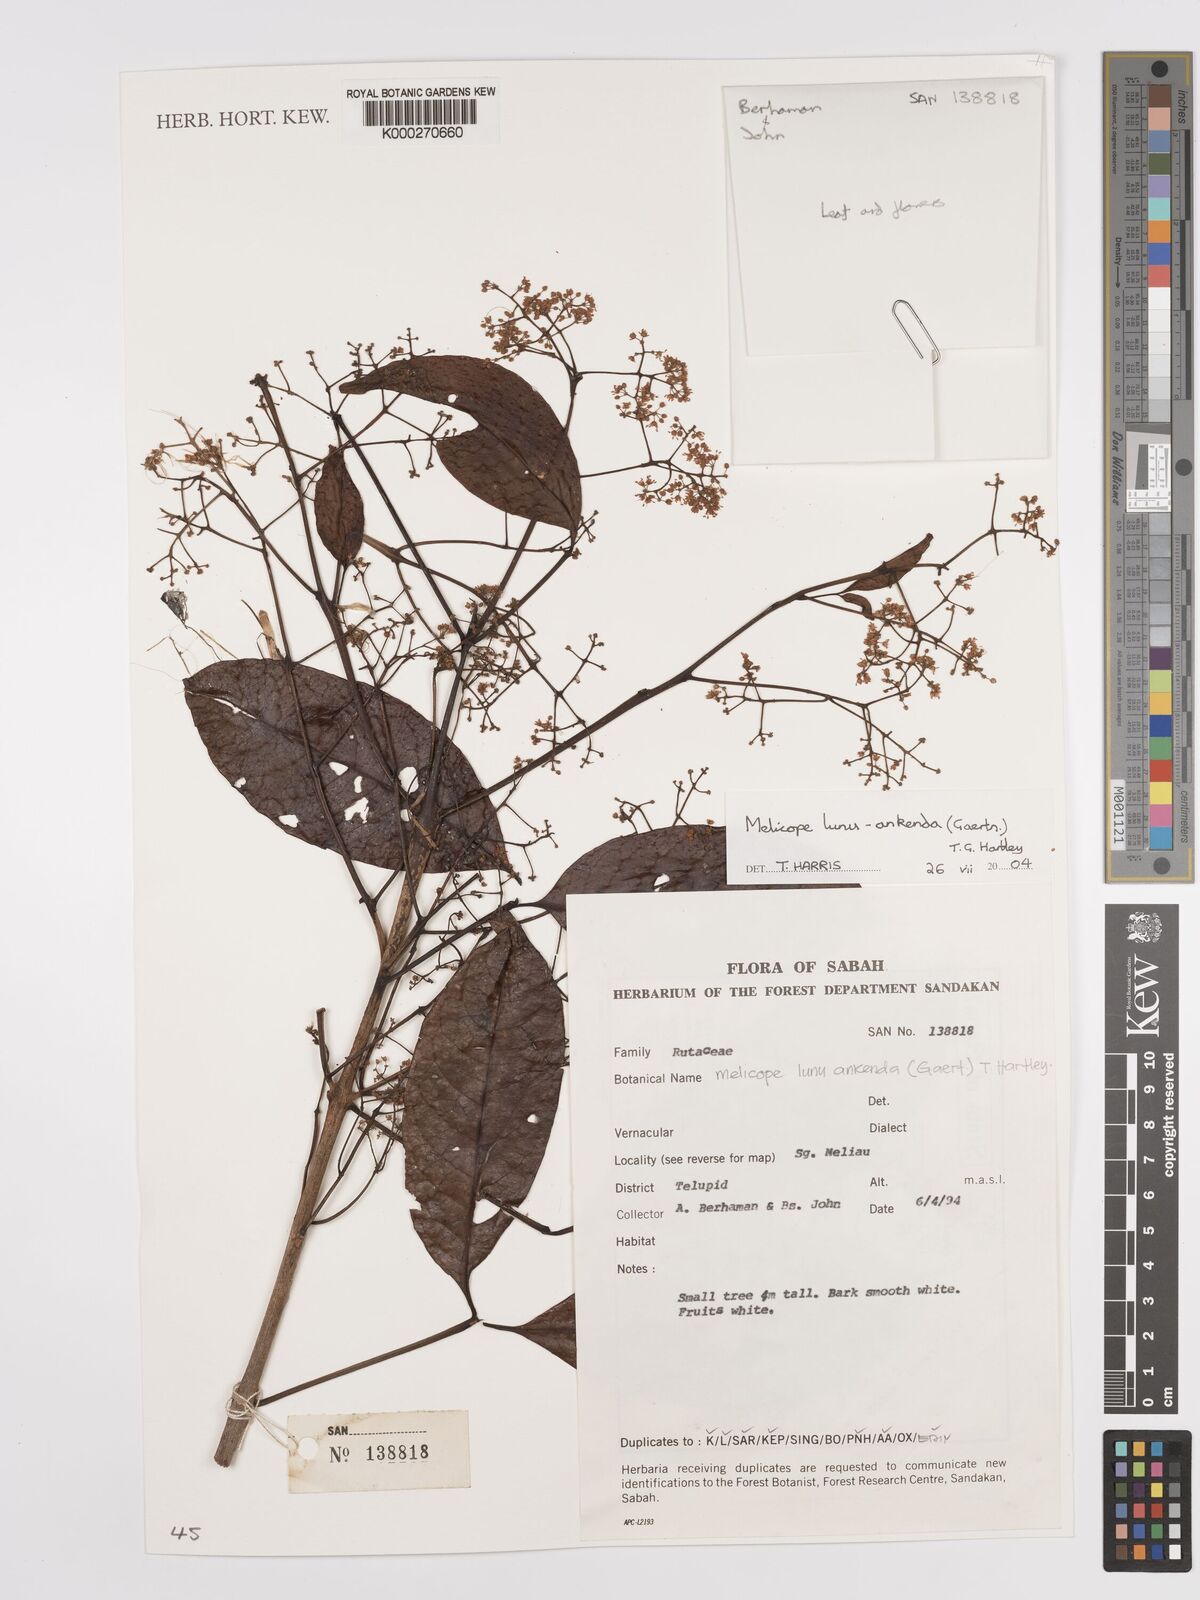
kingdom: Plantae
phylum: Tracheophyta
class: Magnoliopsida
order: Sapindales
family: Rutaceae
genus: Melicope
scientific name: Melicope lunu-ankenda
